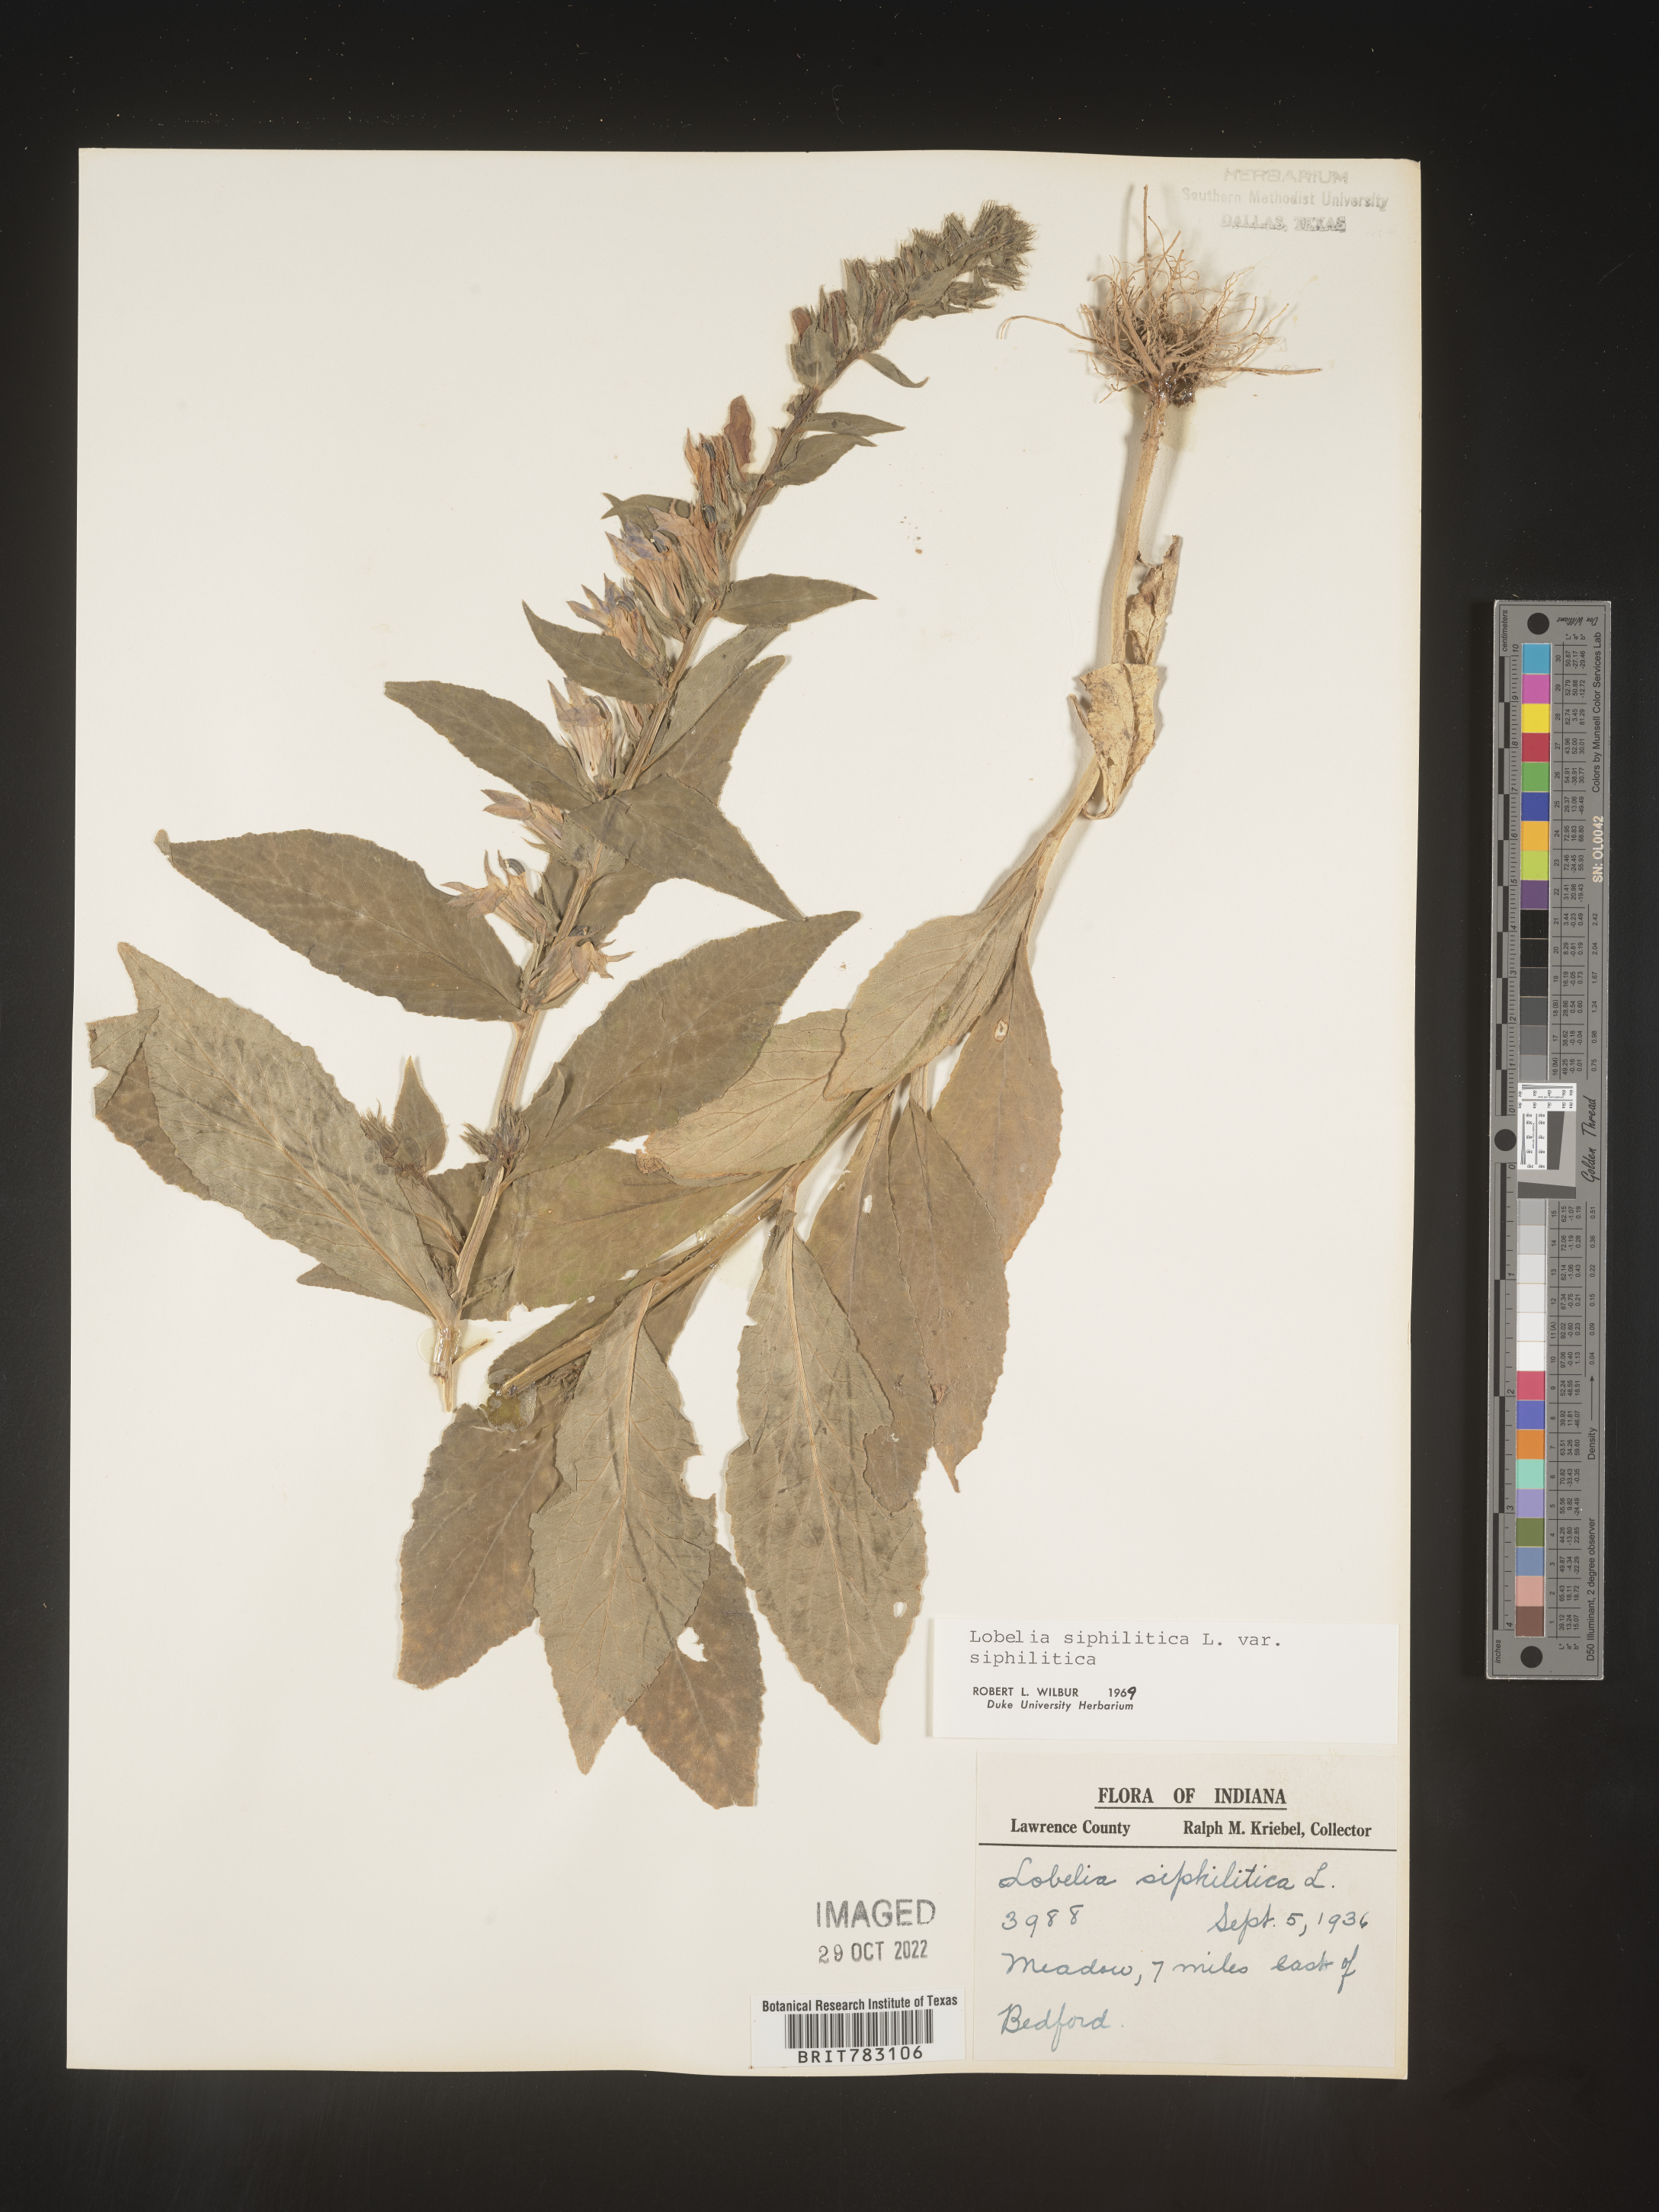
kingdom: Plantae
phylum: Tracheophyta
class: Magnoliopsida
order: Asterales
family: Campanulaceae
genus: Lobelia
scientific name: Lobelia siphilitica
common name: Great lobelia
